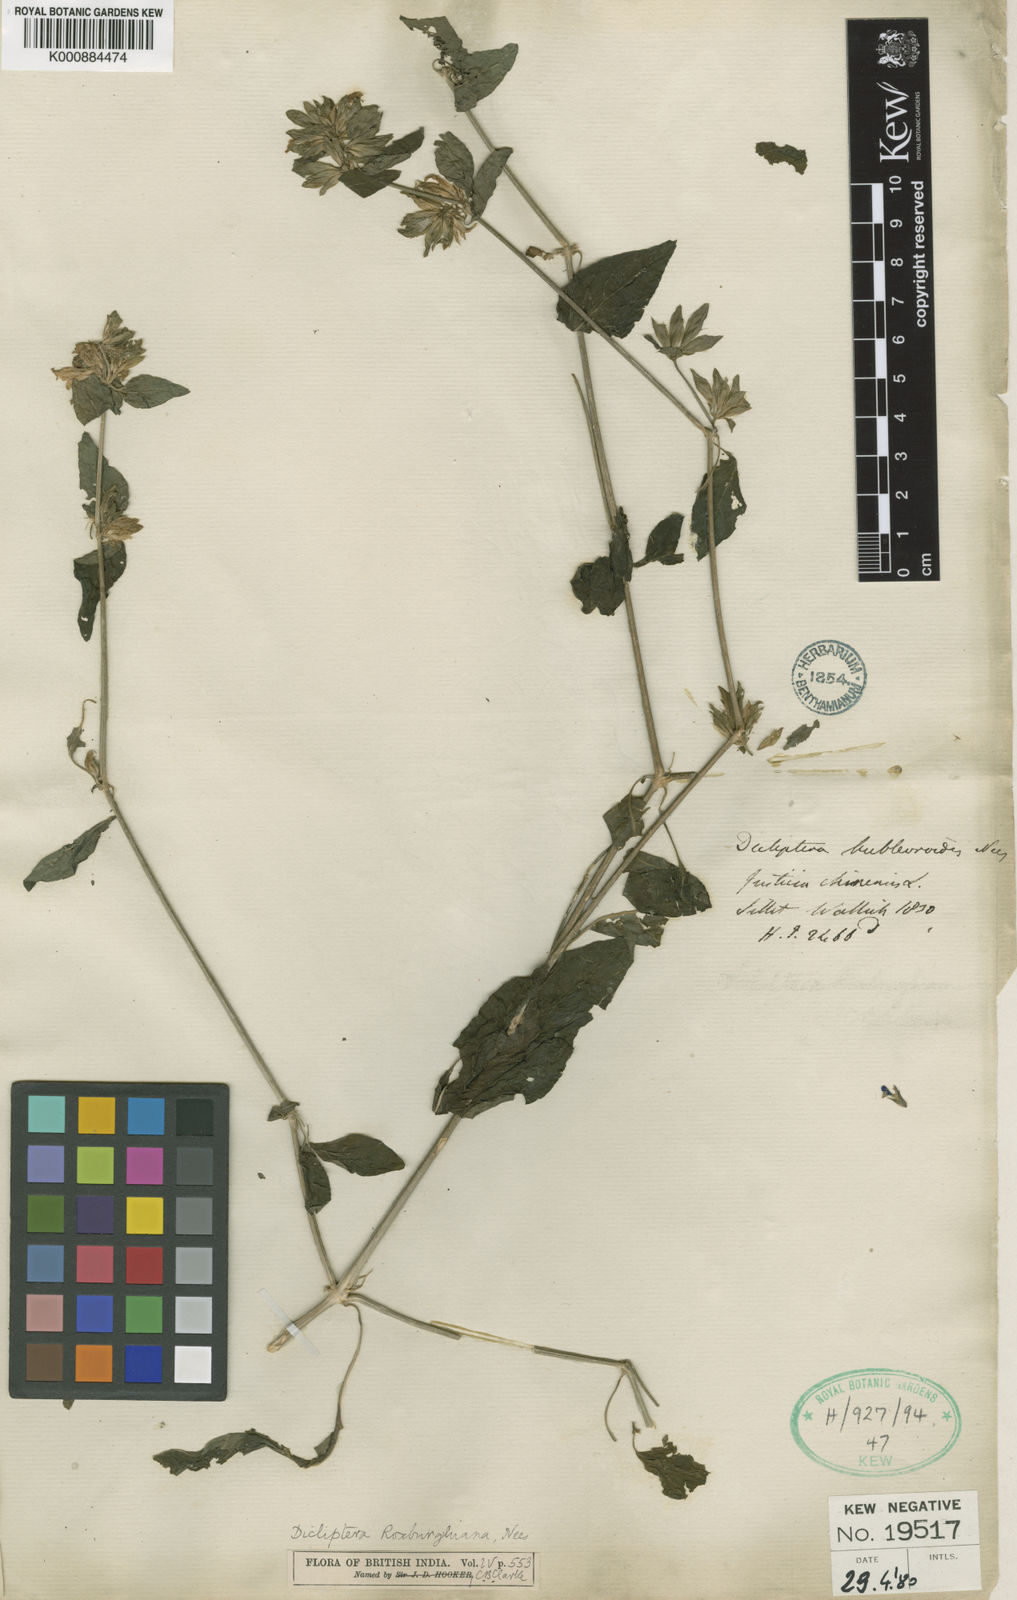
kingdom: Plantae
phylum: Tracheophyta
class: Magnoliopsida
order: Lamiales
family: Acanthaceae
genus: Dicliptera
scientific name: Dicliptera bupleuroides
